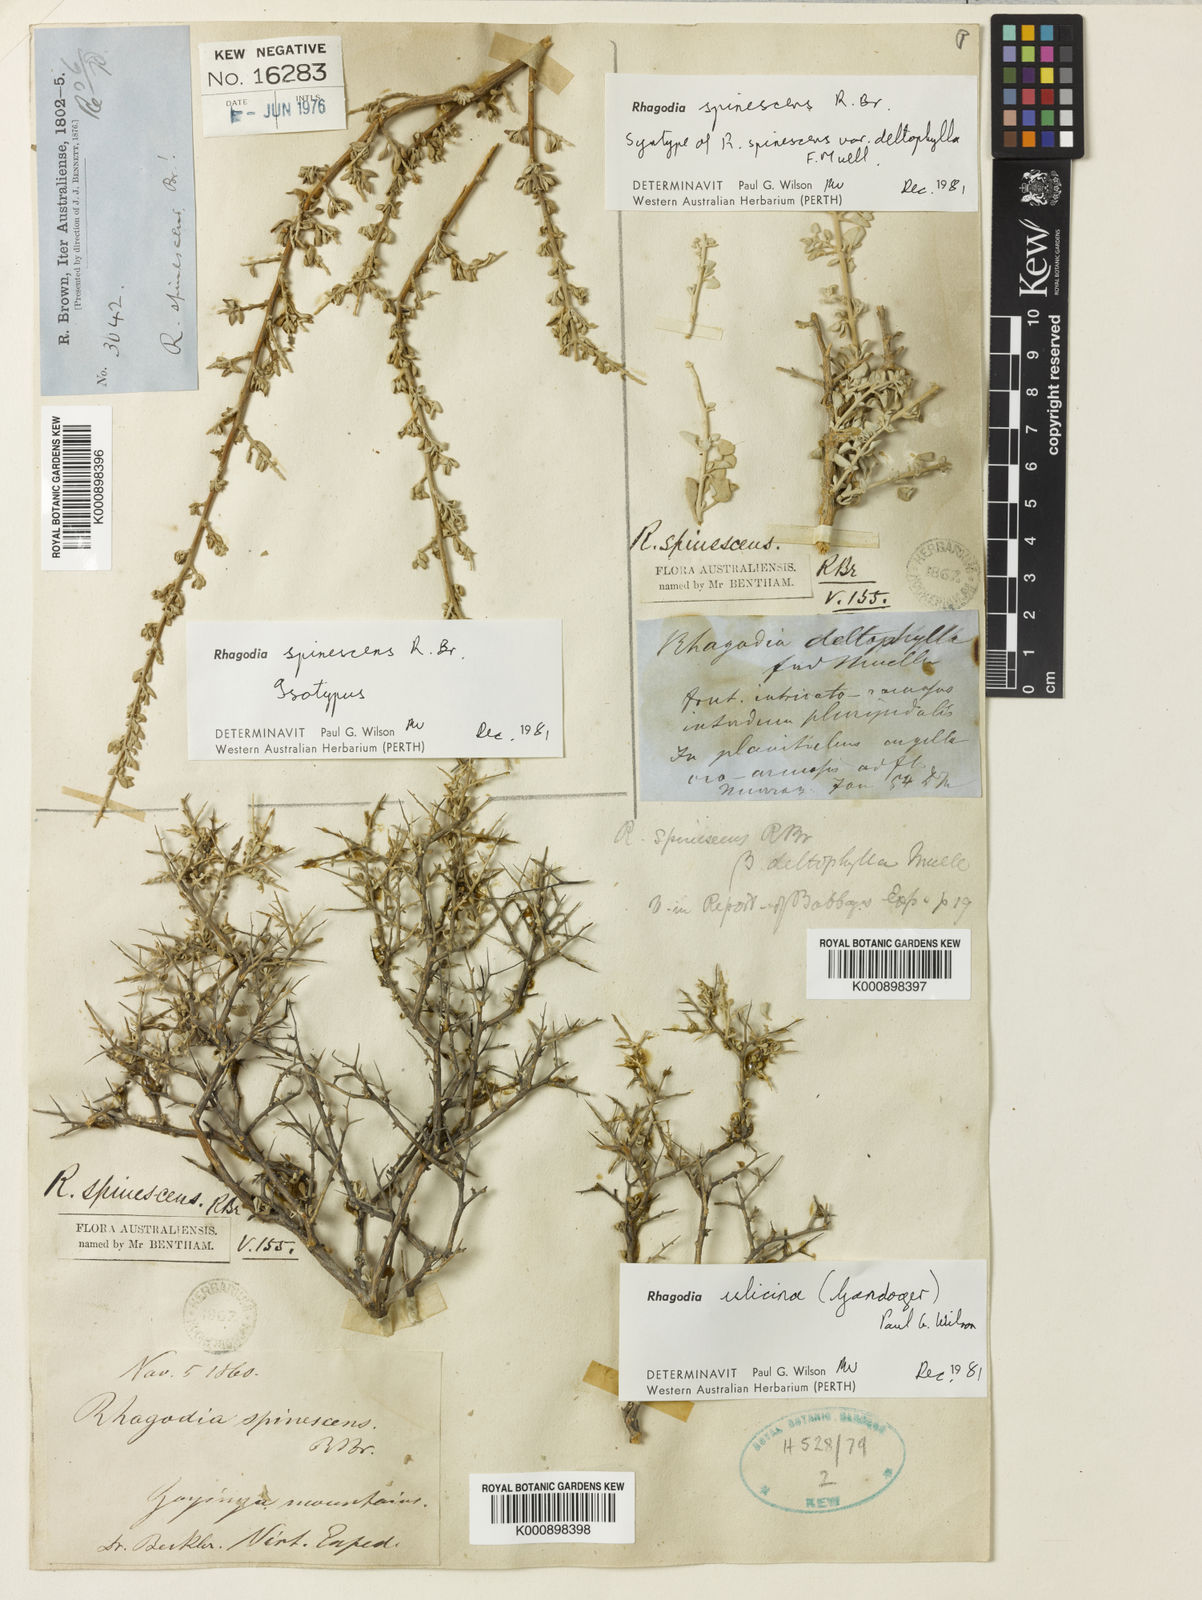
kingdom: Plantae
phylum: Tracheophyta
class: Magnoliopsida
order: Caryophyllales
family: Amaranthaceae
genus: Chenopodium
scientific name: Chenopodium spinescens
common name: Berry-saltbush
